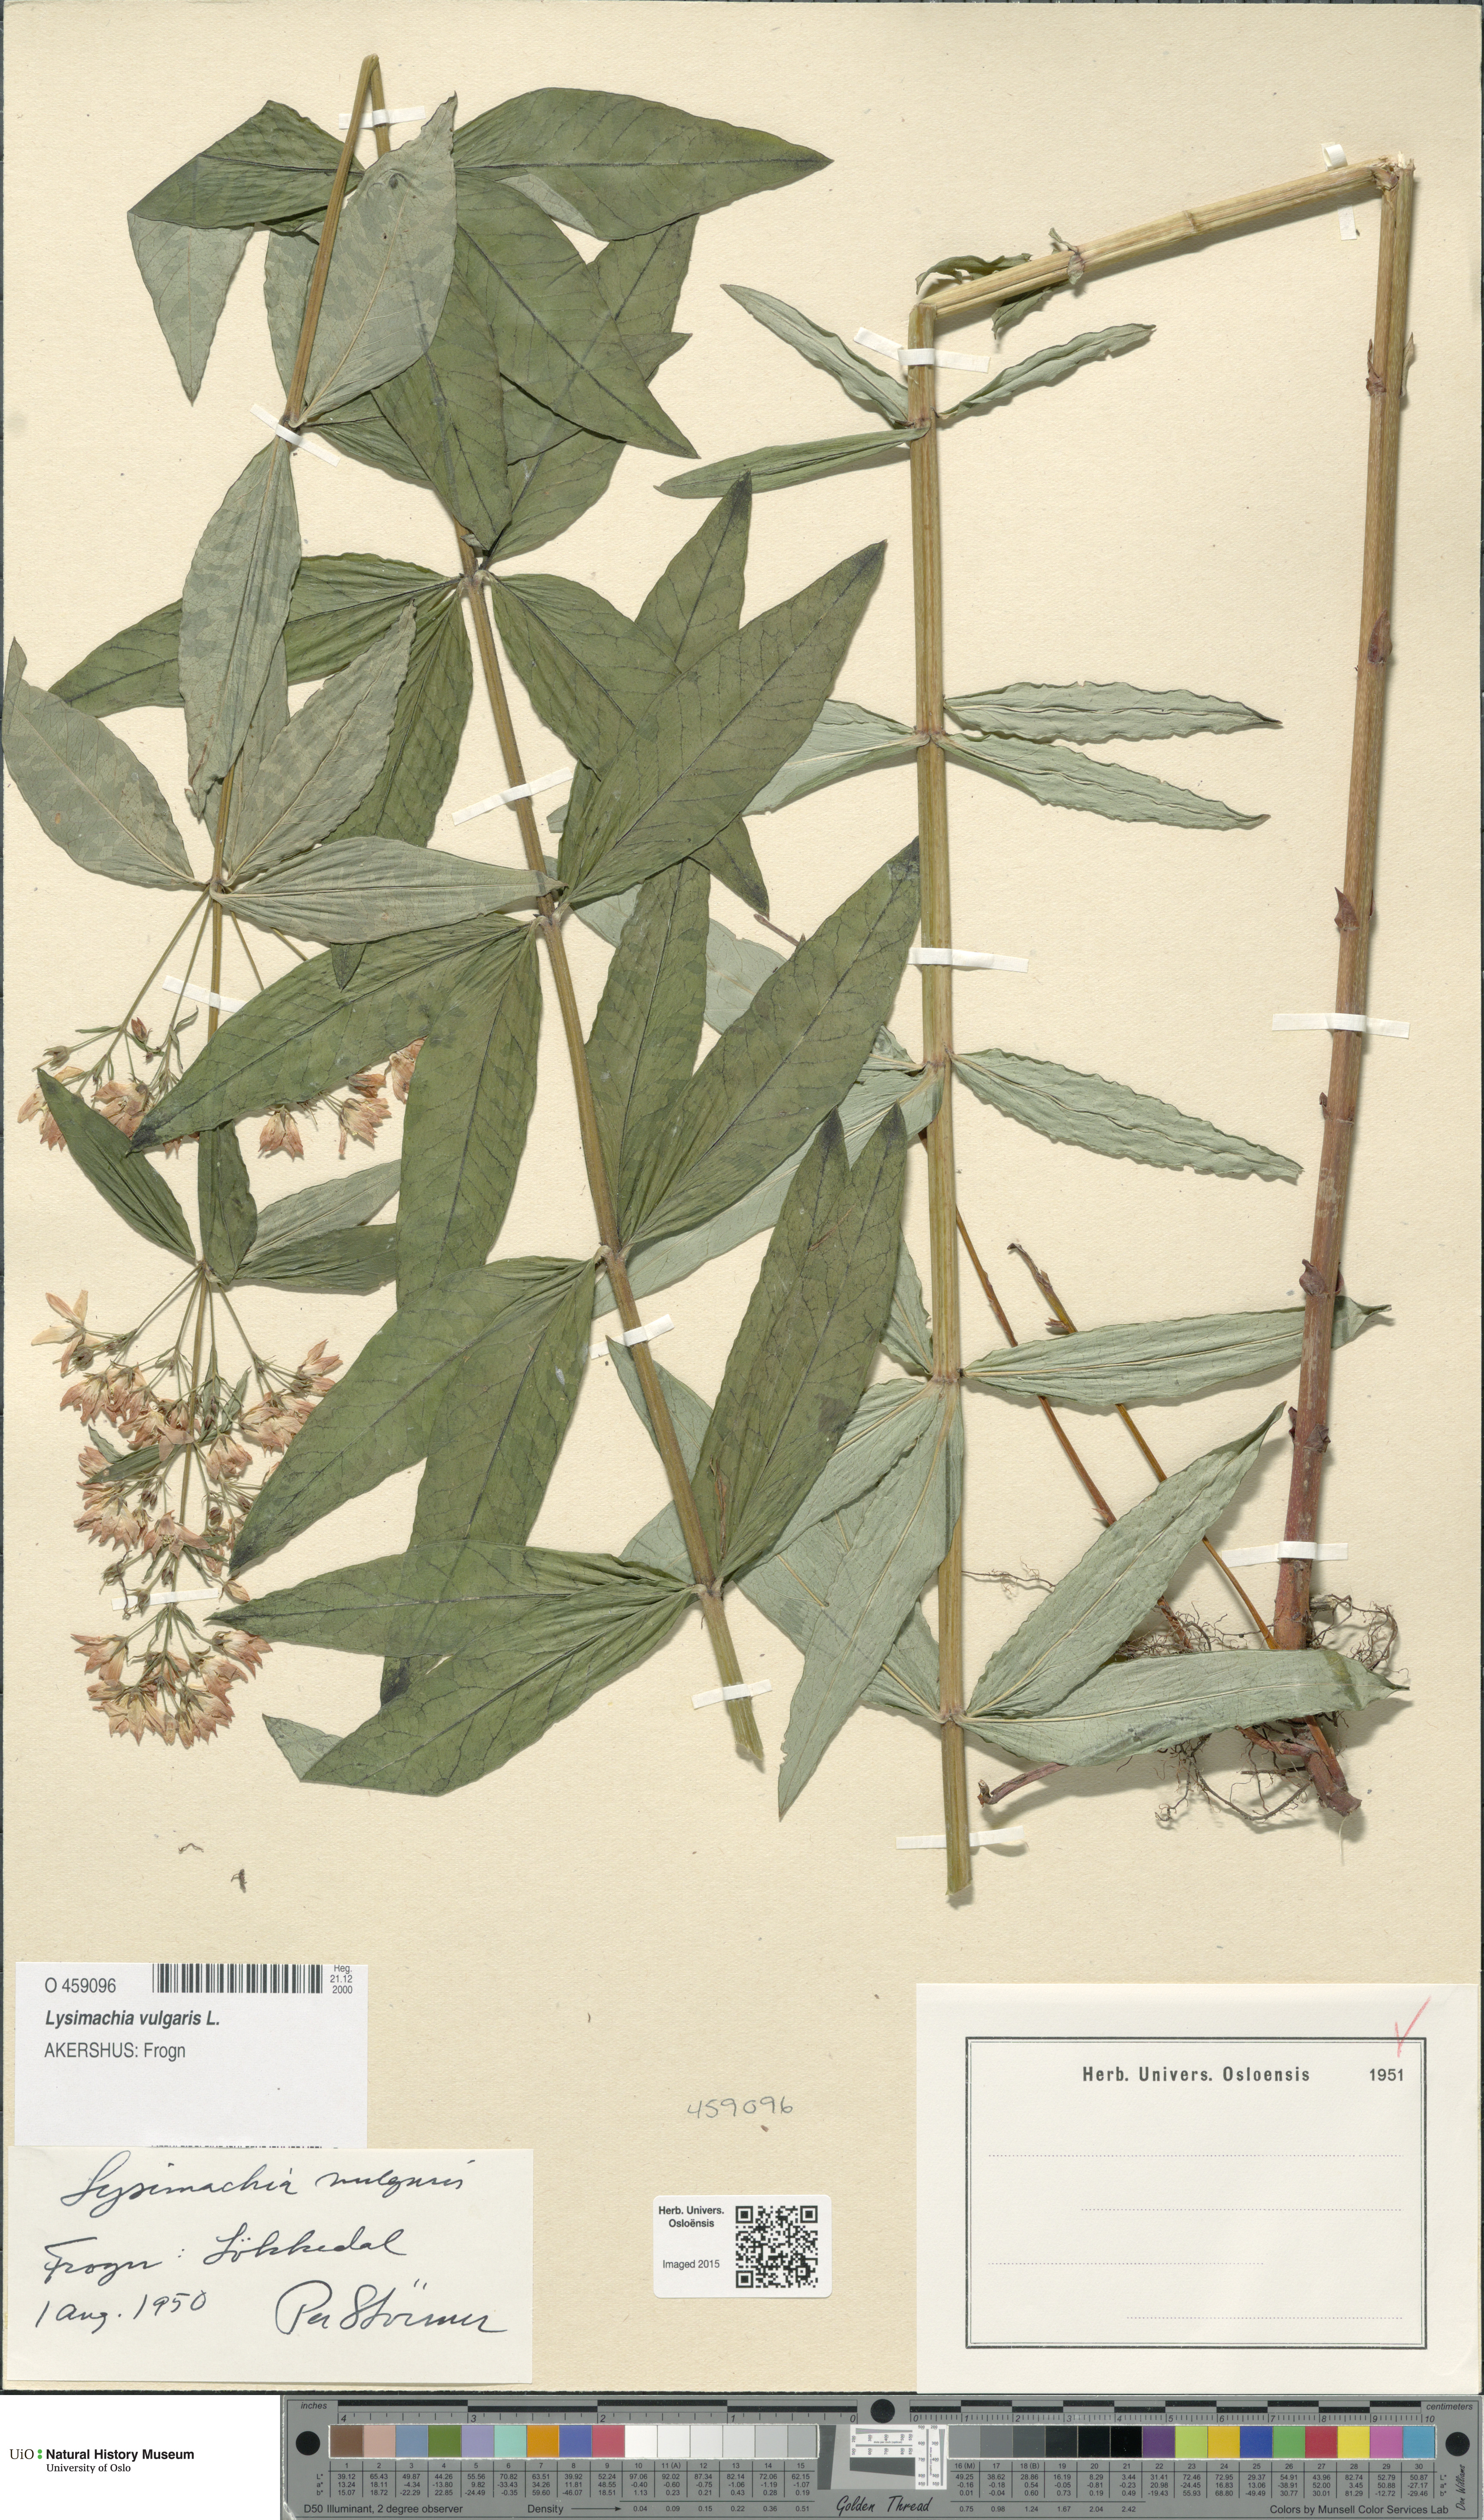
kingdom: Plantae
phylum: Tracheophyta
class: Magnoliopsida
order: Ericales
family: Primulaceae
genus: Lysimachia
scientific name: Lysimachia vulgaris
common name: Yellow loosestrife
